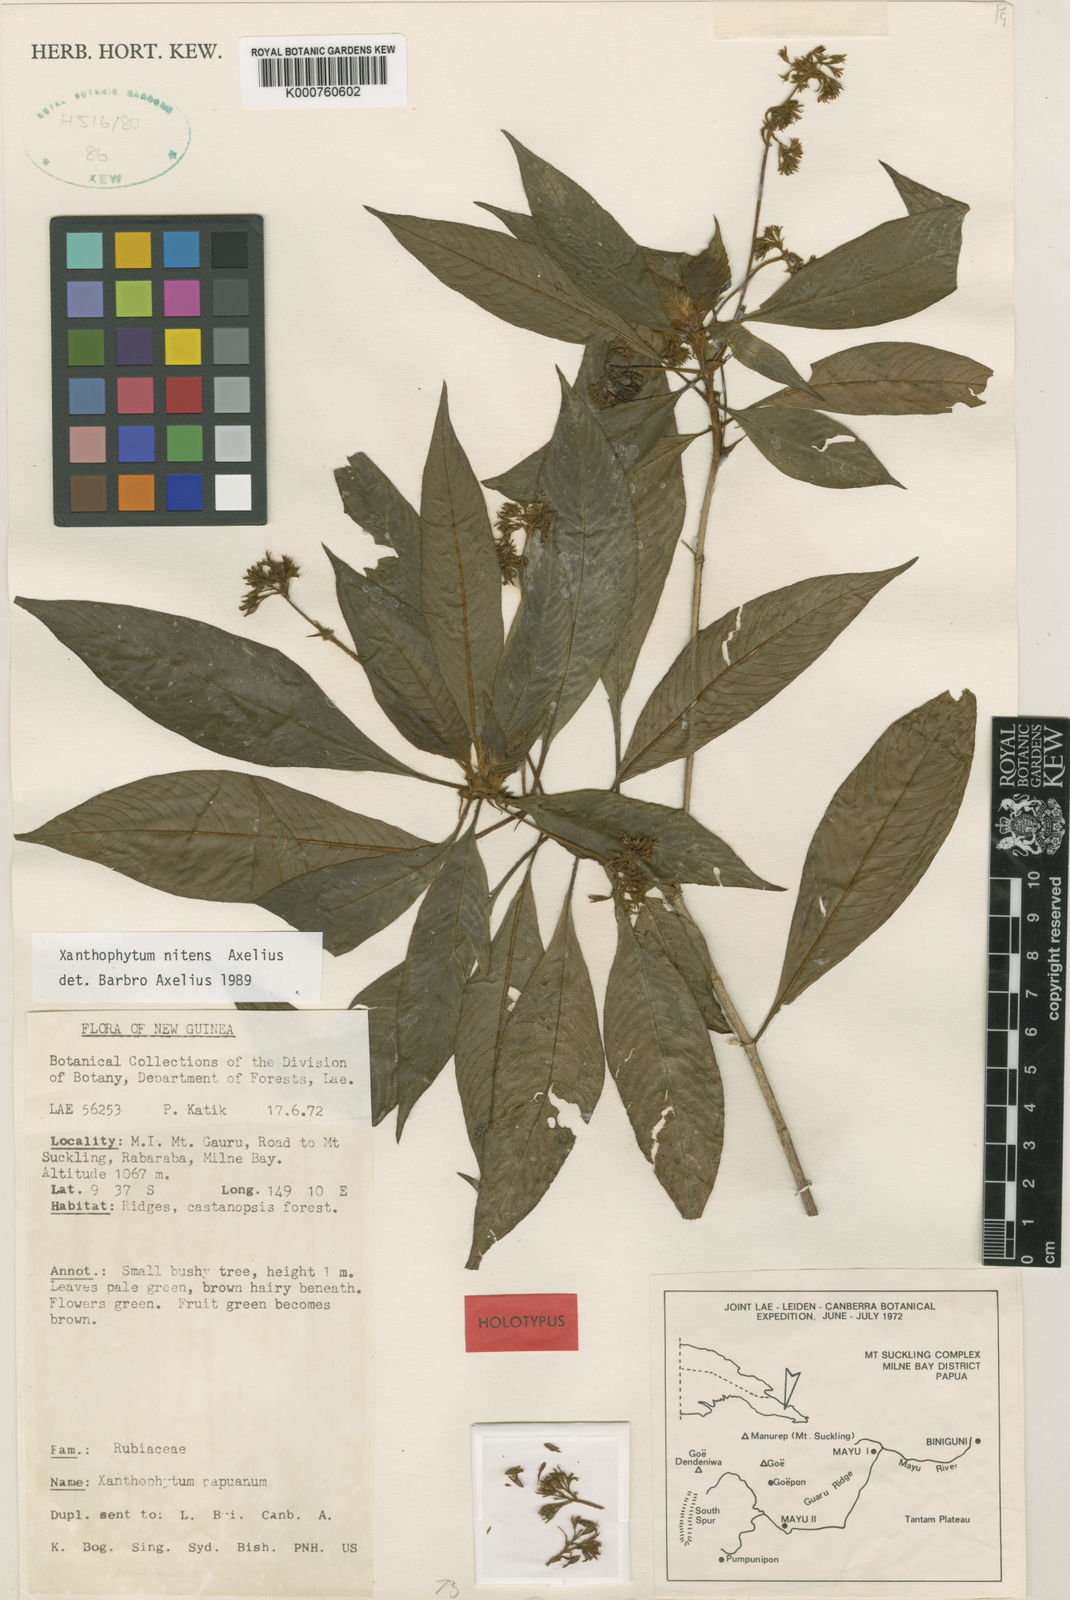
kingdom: Plantae
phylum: Tracheophyta
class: Magnoliopsida
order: Gentianales
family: Rubiaceae
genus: Xanthophytum
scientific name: Xanthophytum nitens
